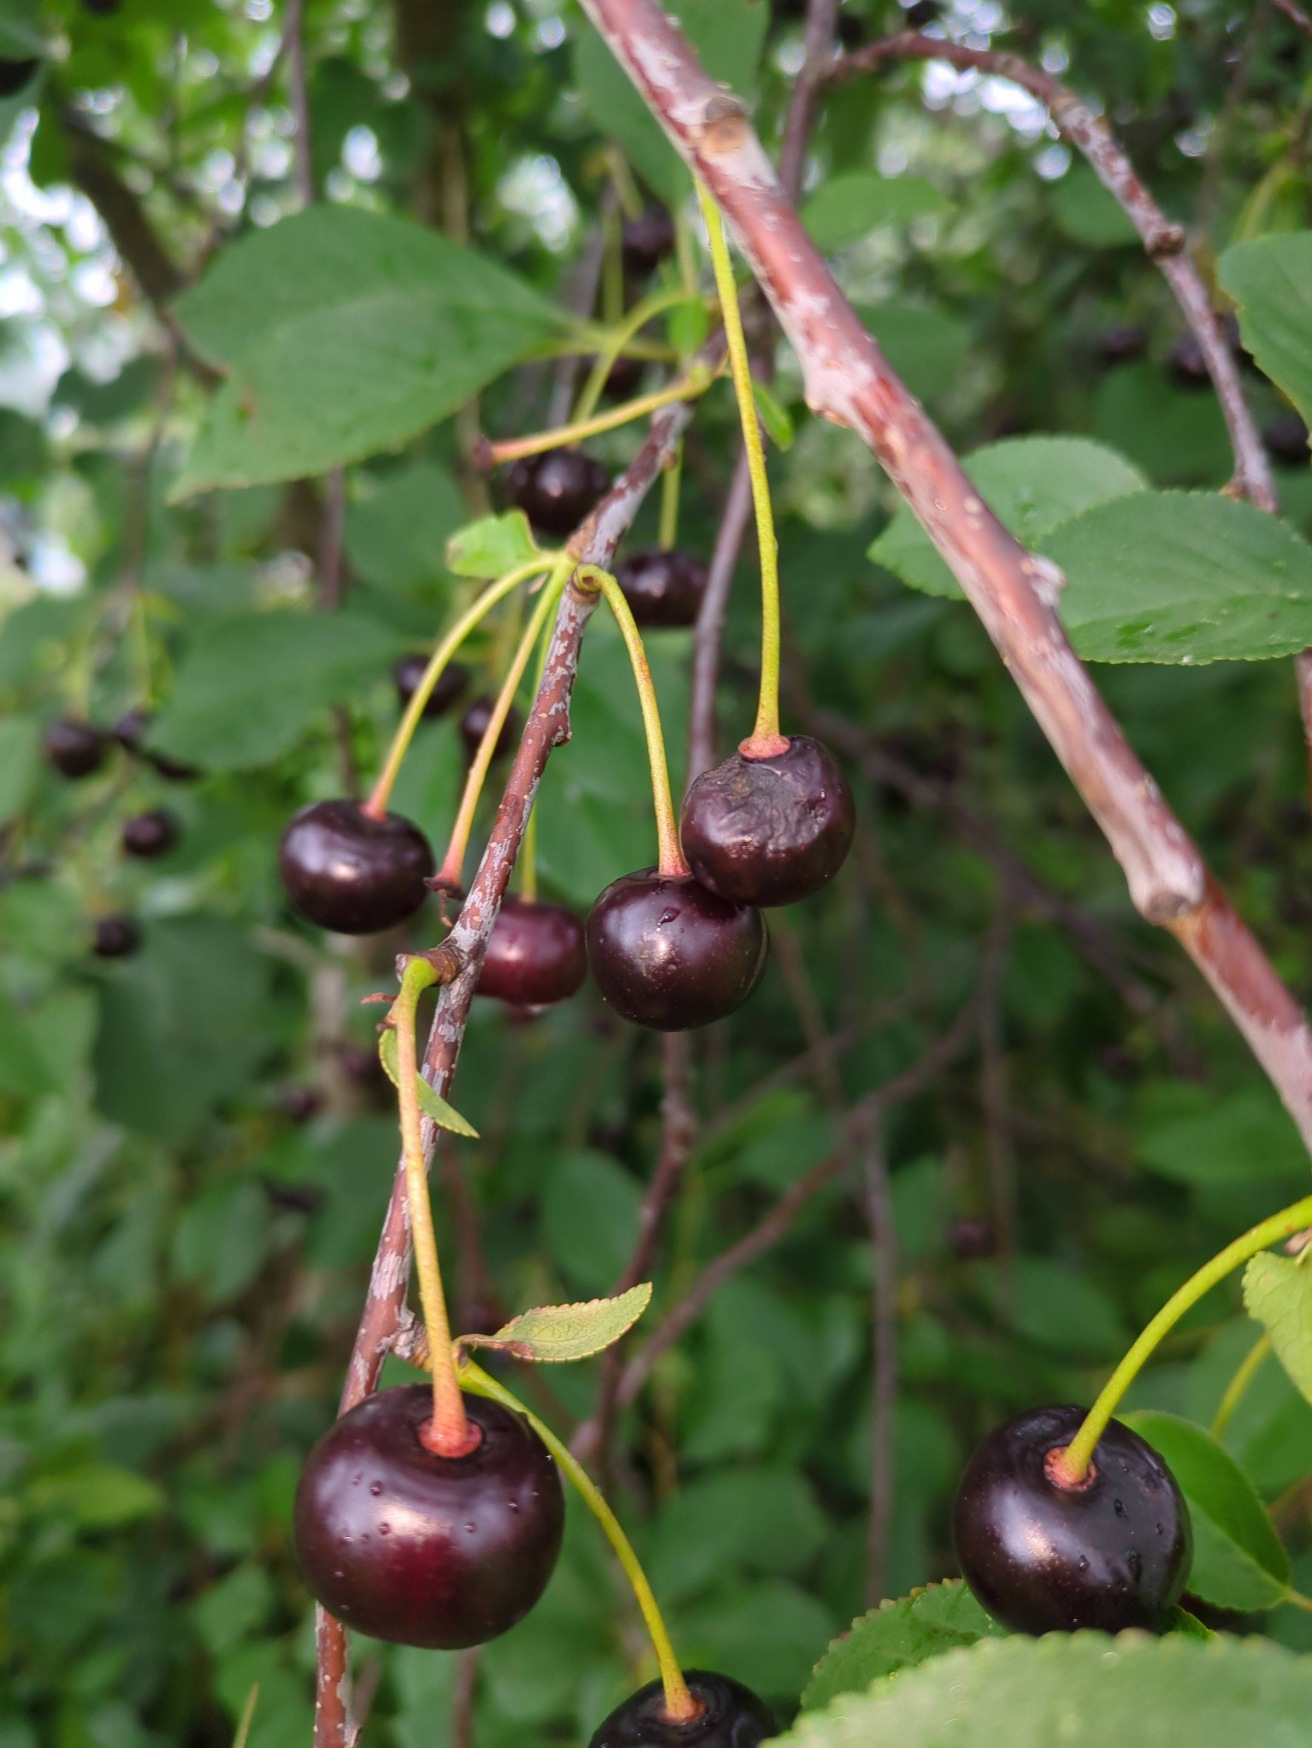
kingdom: Plantae
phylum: Tracheophyta
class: Magnoliopsida
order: Rosales
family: Rosaceae
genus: Prunus
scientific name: Prunus
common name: Blommeslægten
